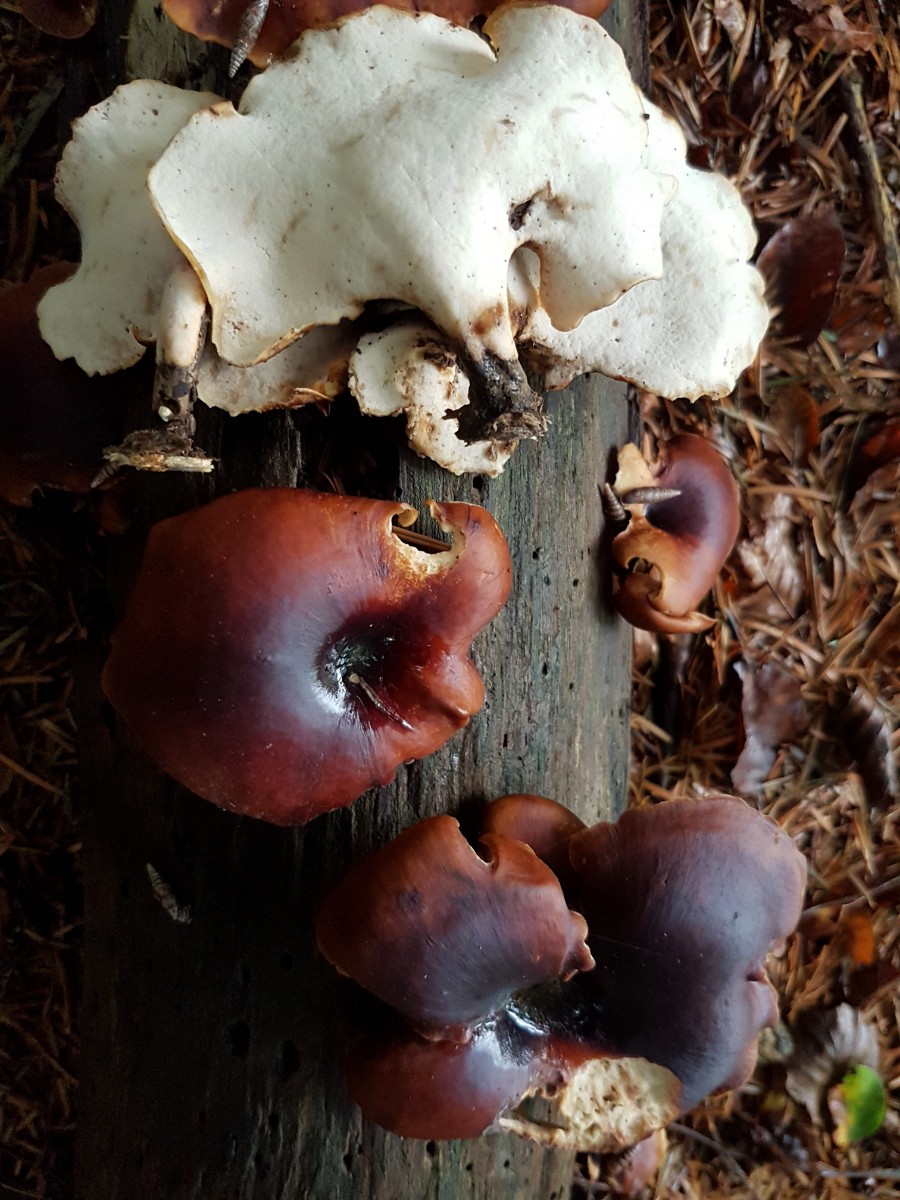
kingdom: Fungi
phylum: Basidiomycota
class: Agaricomycetes
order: Polyporales
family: Polyporaceae
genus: Picipes
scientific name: Picipes badius
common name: kastaniebrun stilkporesvamp
